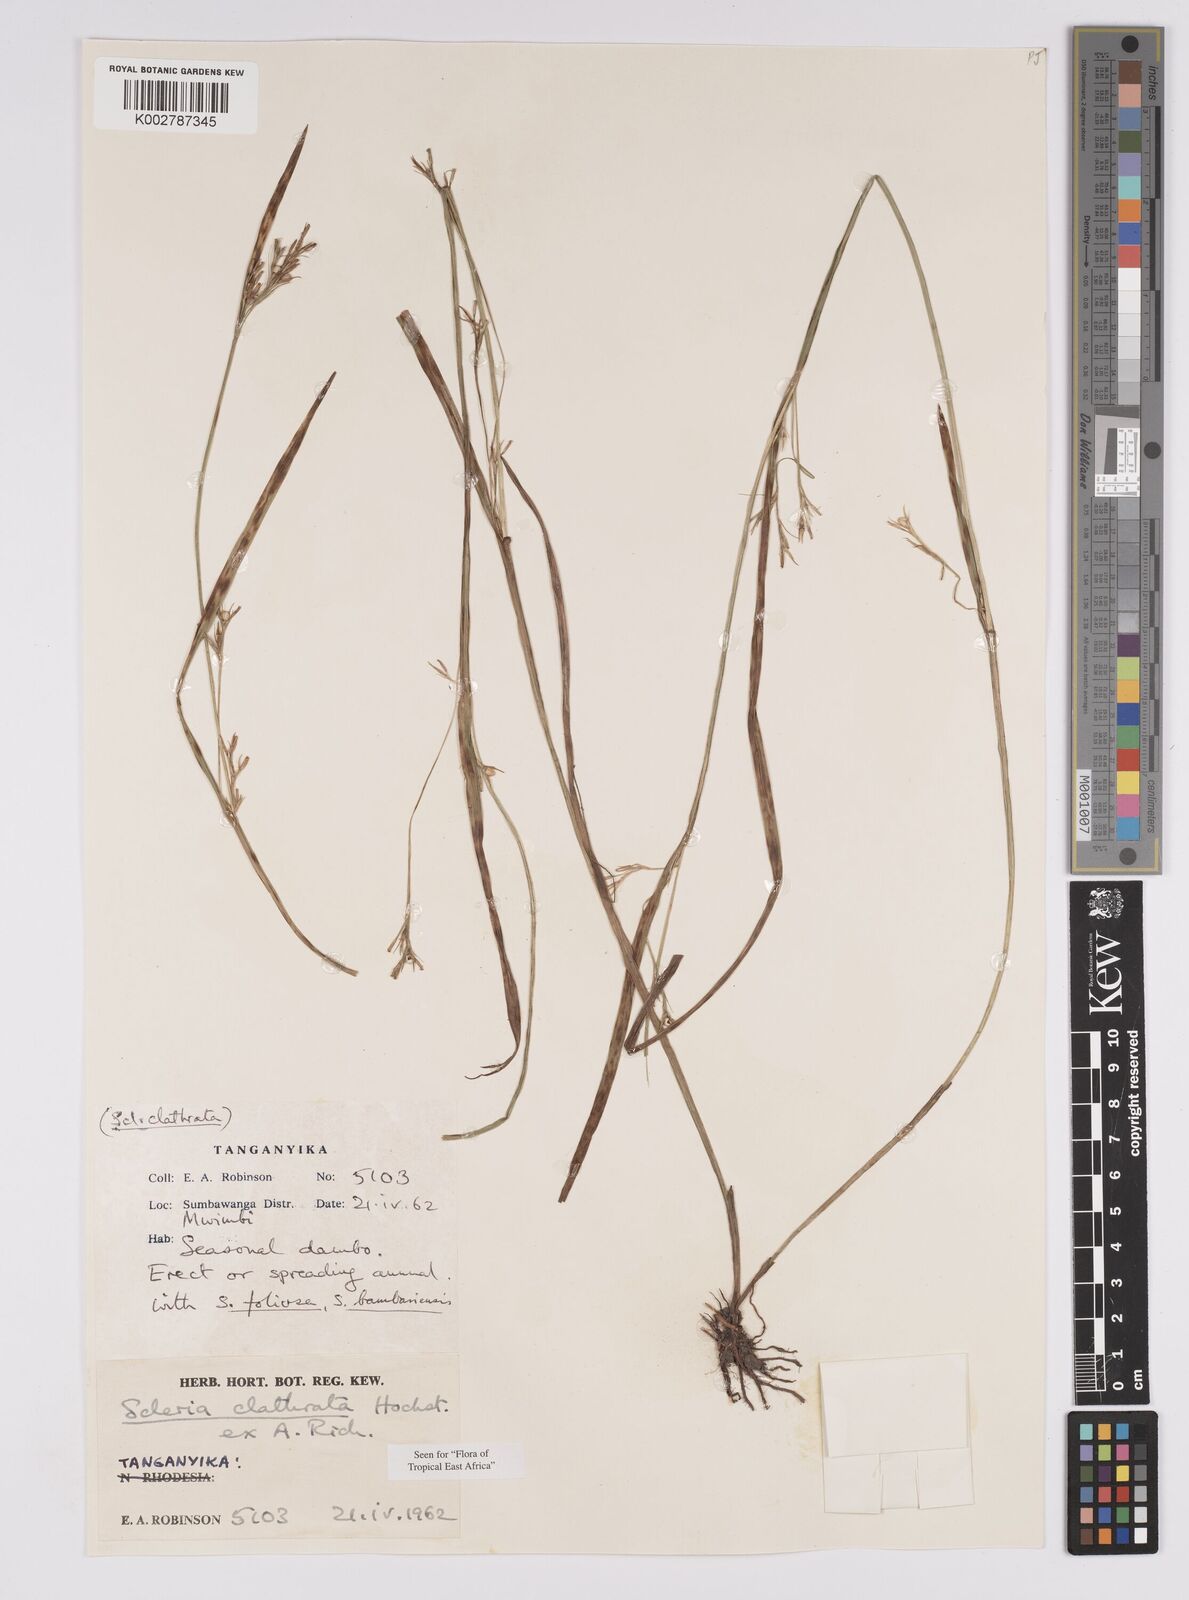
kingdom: Plantae
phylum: Tracheophyta
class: Liliopsida
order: Poales
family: Cyperaceae
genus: Scleria
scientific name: Scleria clathrata
